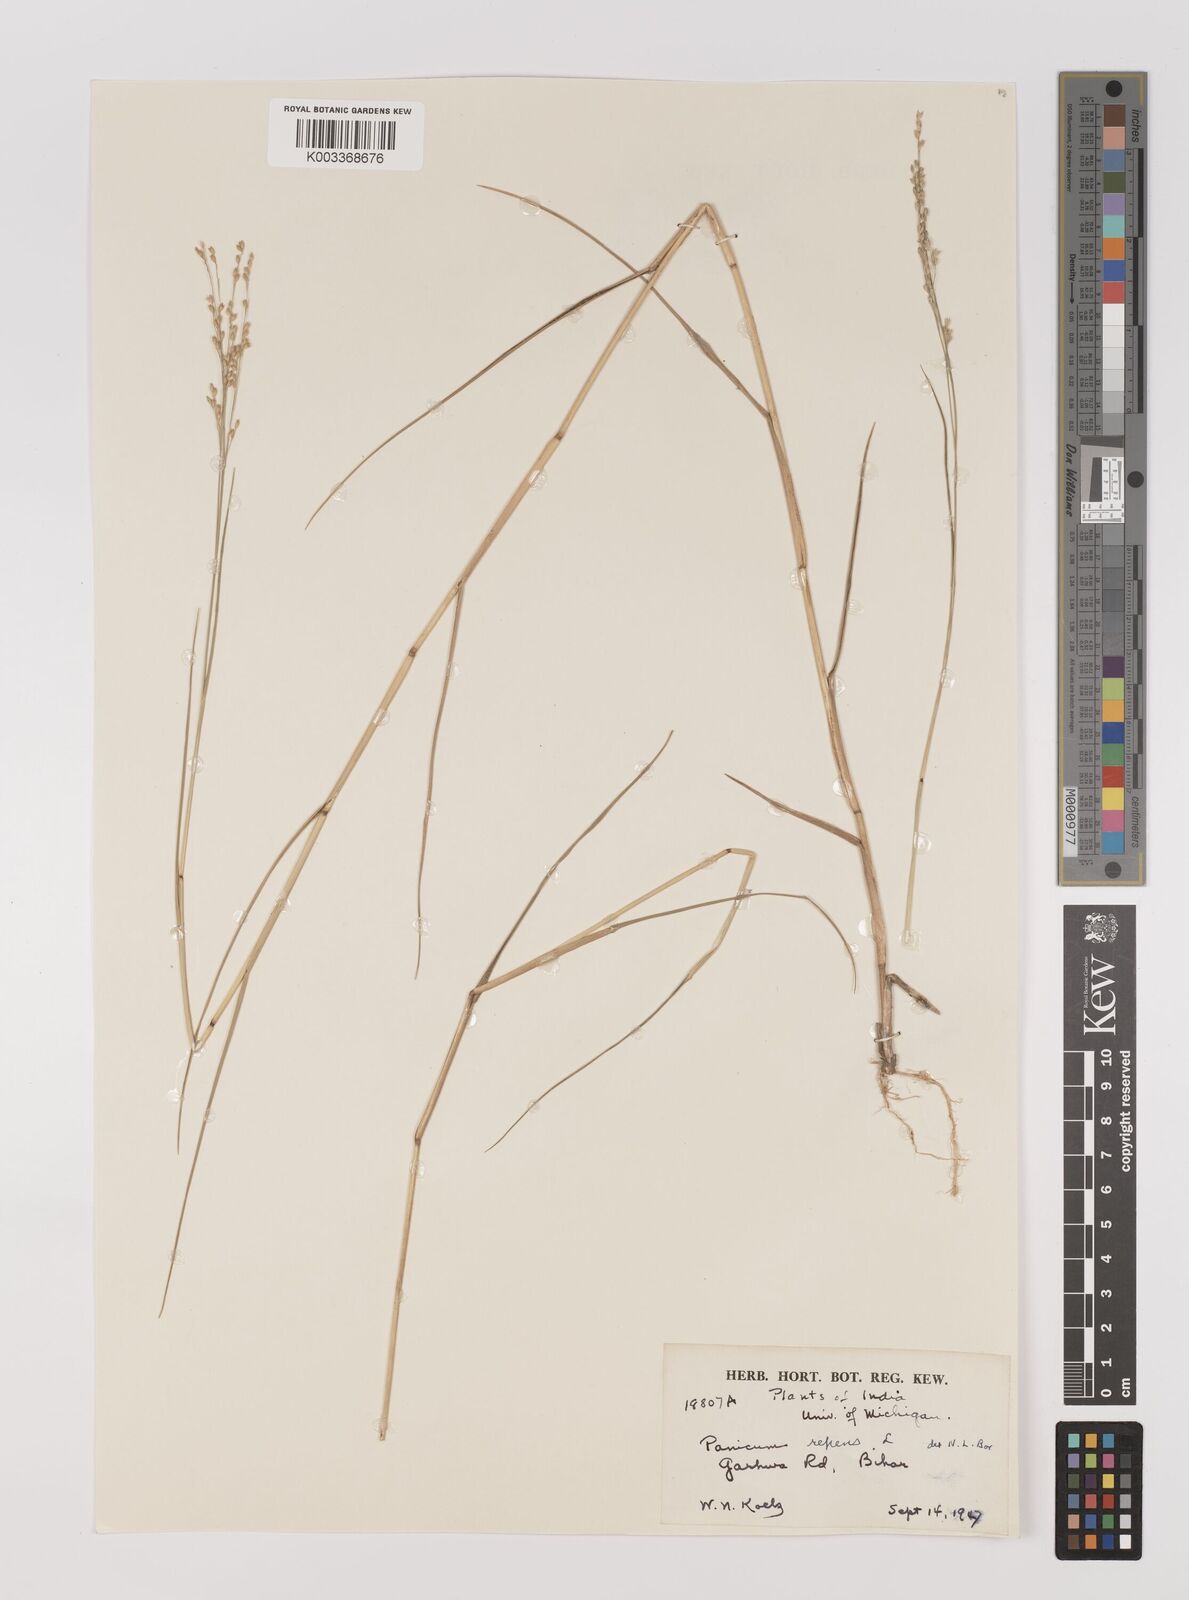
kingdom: Plantae
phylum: Tracheophyta
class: Liliopsida
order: Poales
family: Poaceae
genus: Panicum
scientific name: Panicum repens
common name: Torpedo grass
